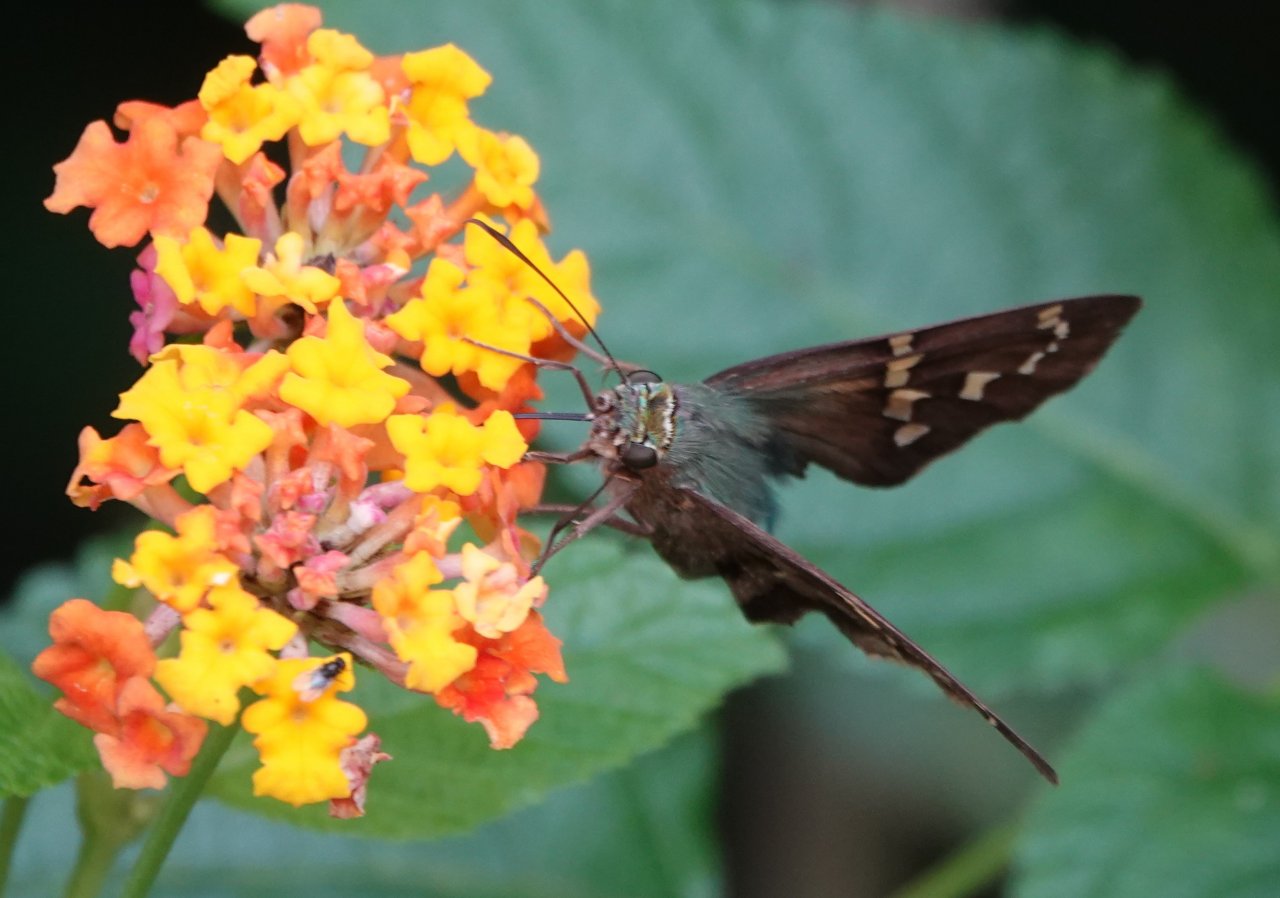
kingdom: Animalia
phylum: Arthropoda
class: Insecta
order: Lepidoptera
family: Hesperiidae
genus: Urbanus
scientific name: Urbanus proteus
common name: Long-tailed Skipper
